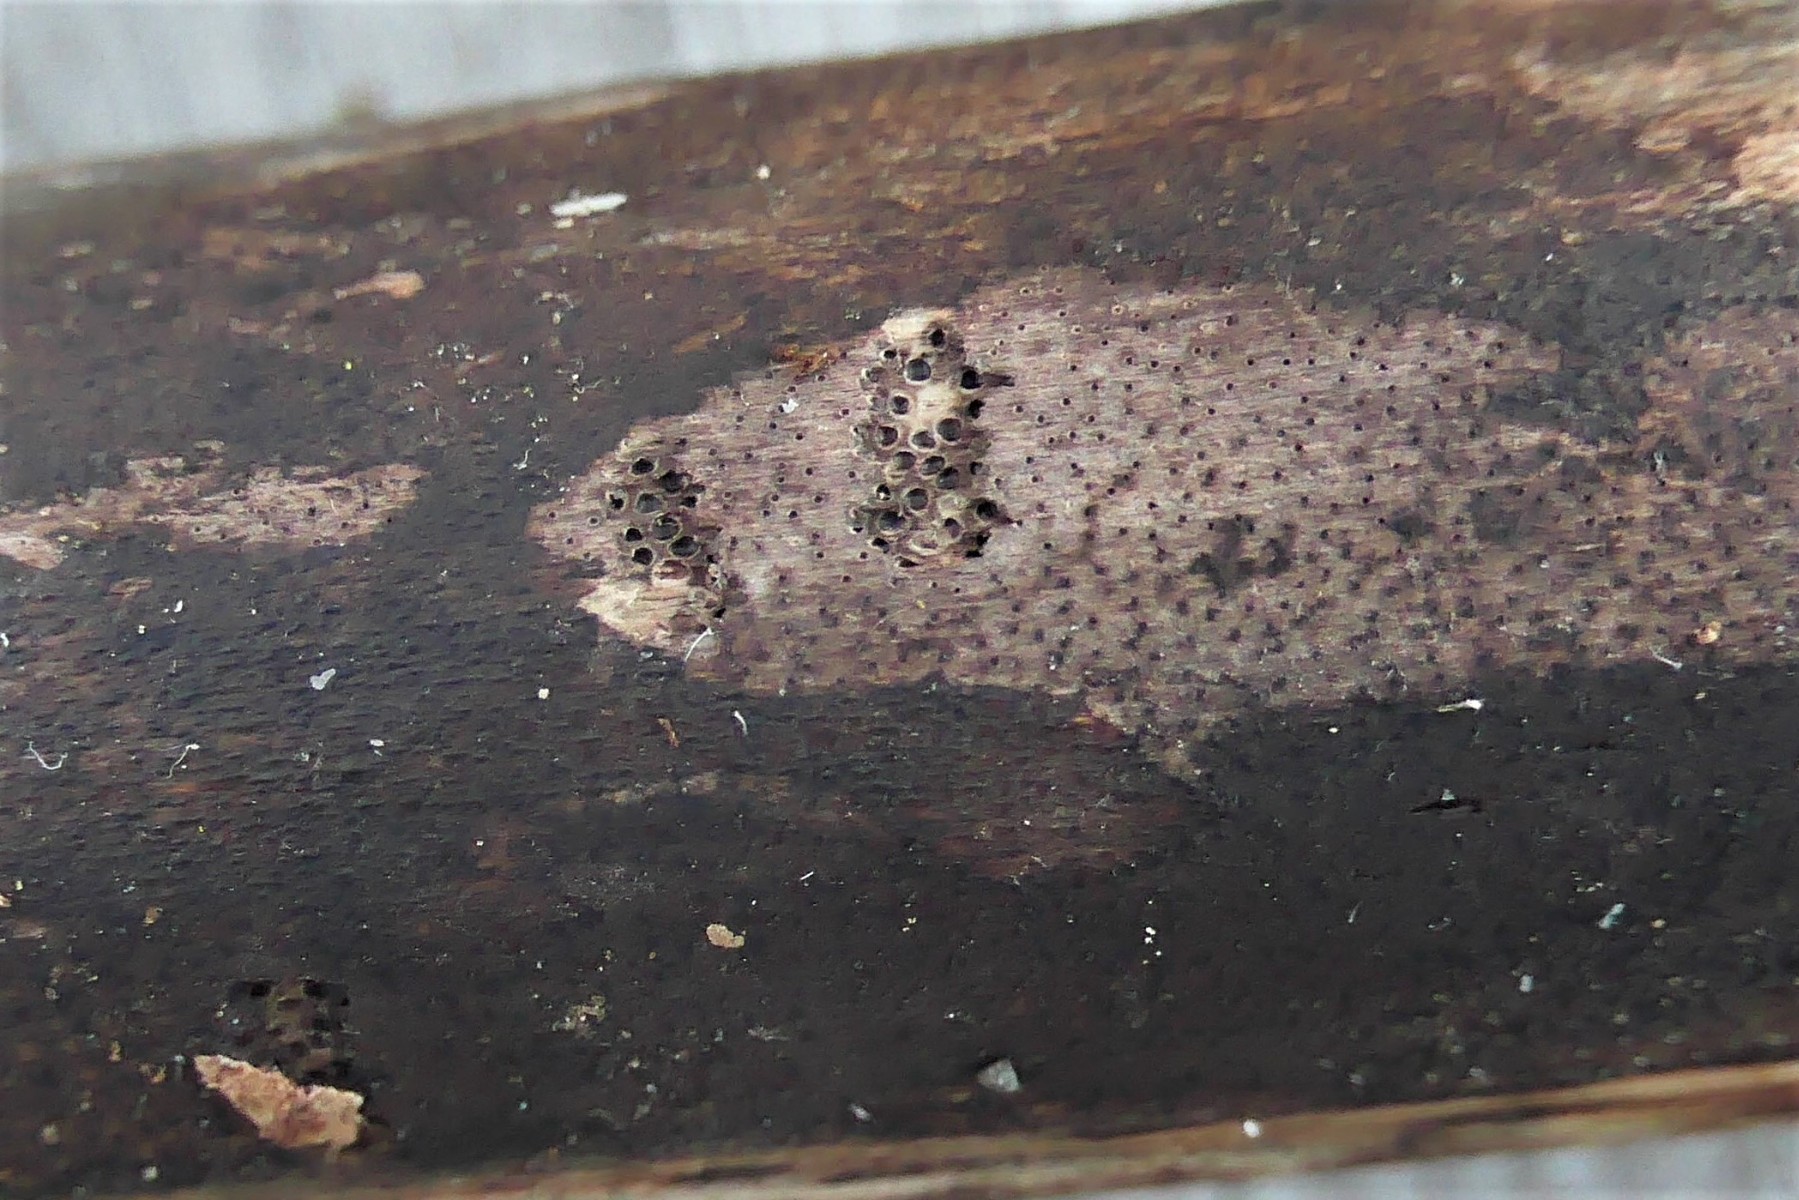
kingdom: Fungi
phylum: Ascomycota
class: Sordariomycetes
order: Xylariales
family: Diatrypaceae
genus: Eutypa
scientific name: Eutypa maura
